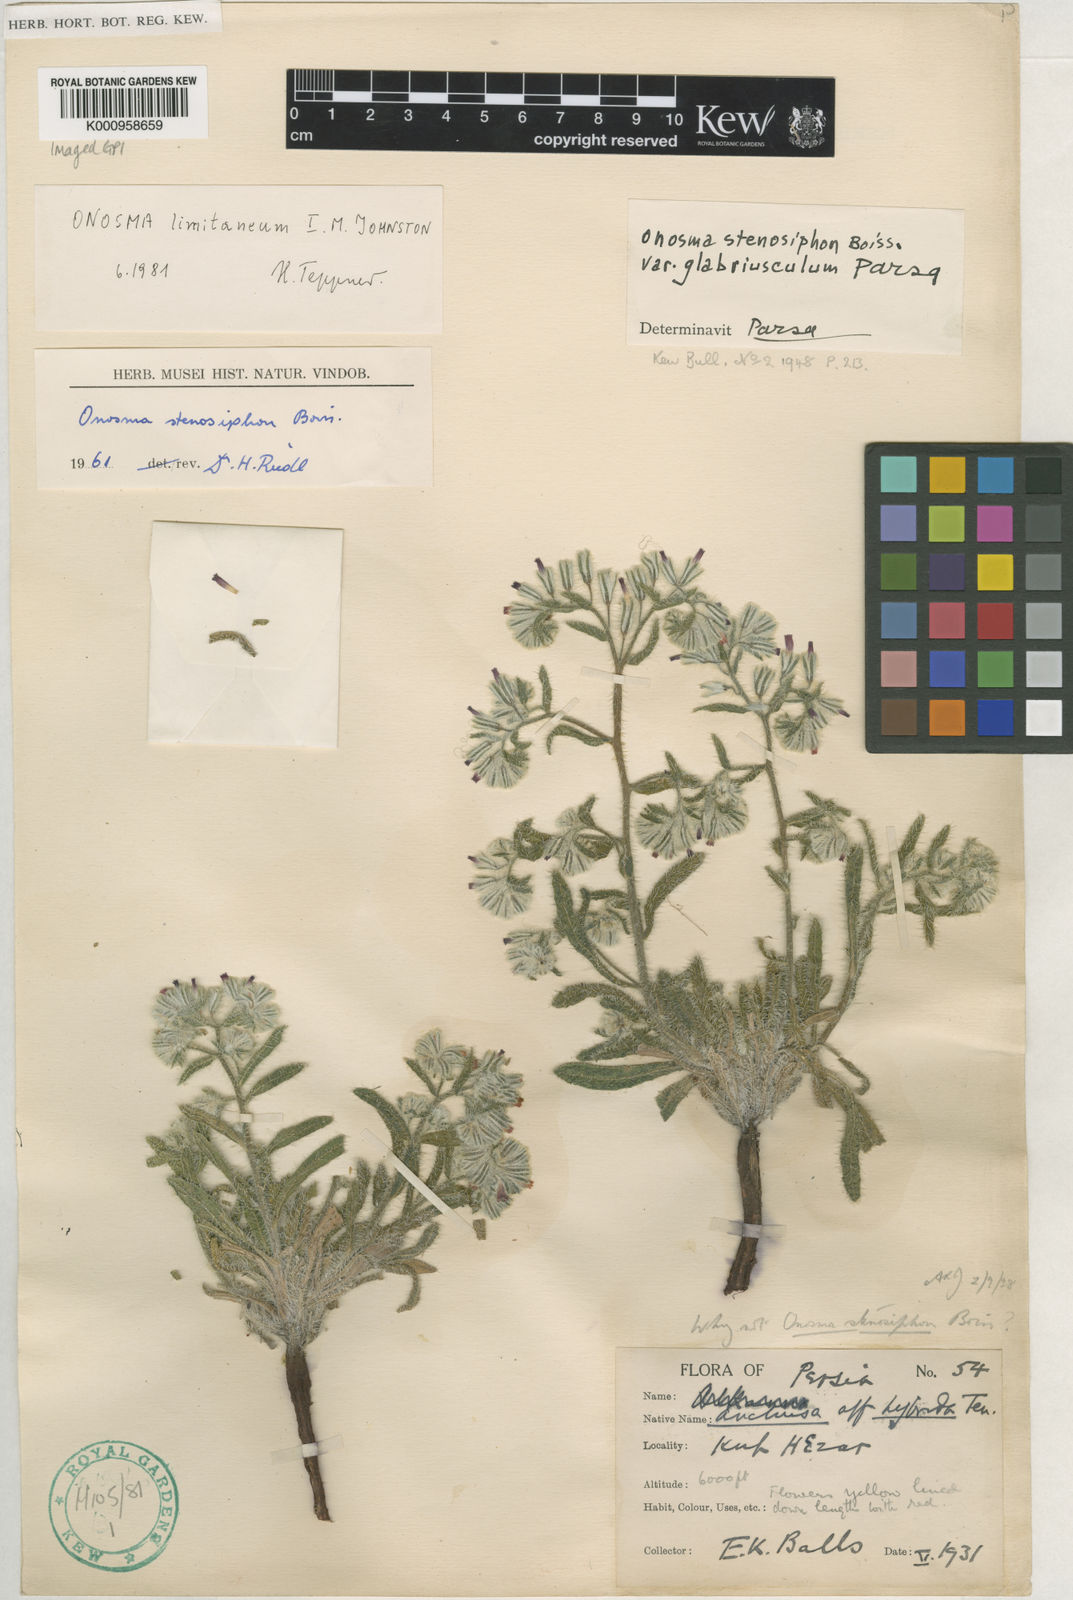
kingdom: Plantae
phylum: Tracheophyta
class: Magnoliopsida
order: Boraginales
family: Boraginaceae
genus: Maharanga
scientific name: Maharanga stenosiphon
